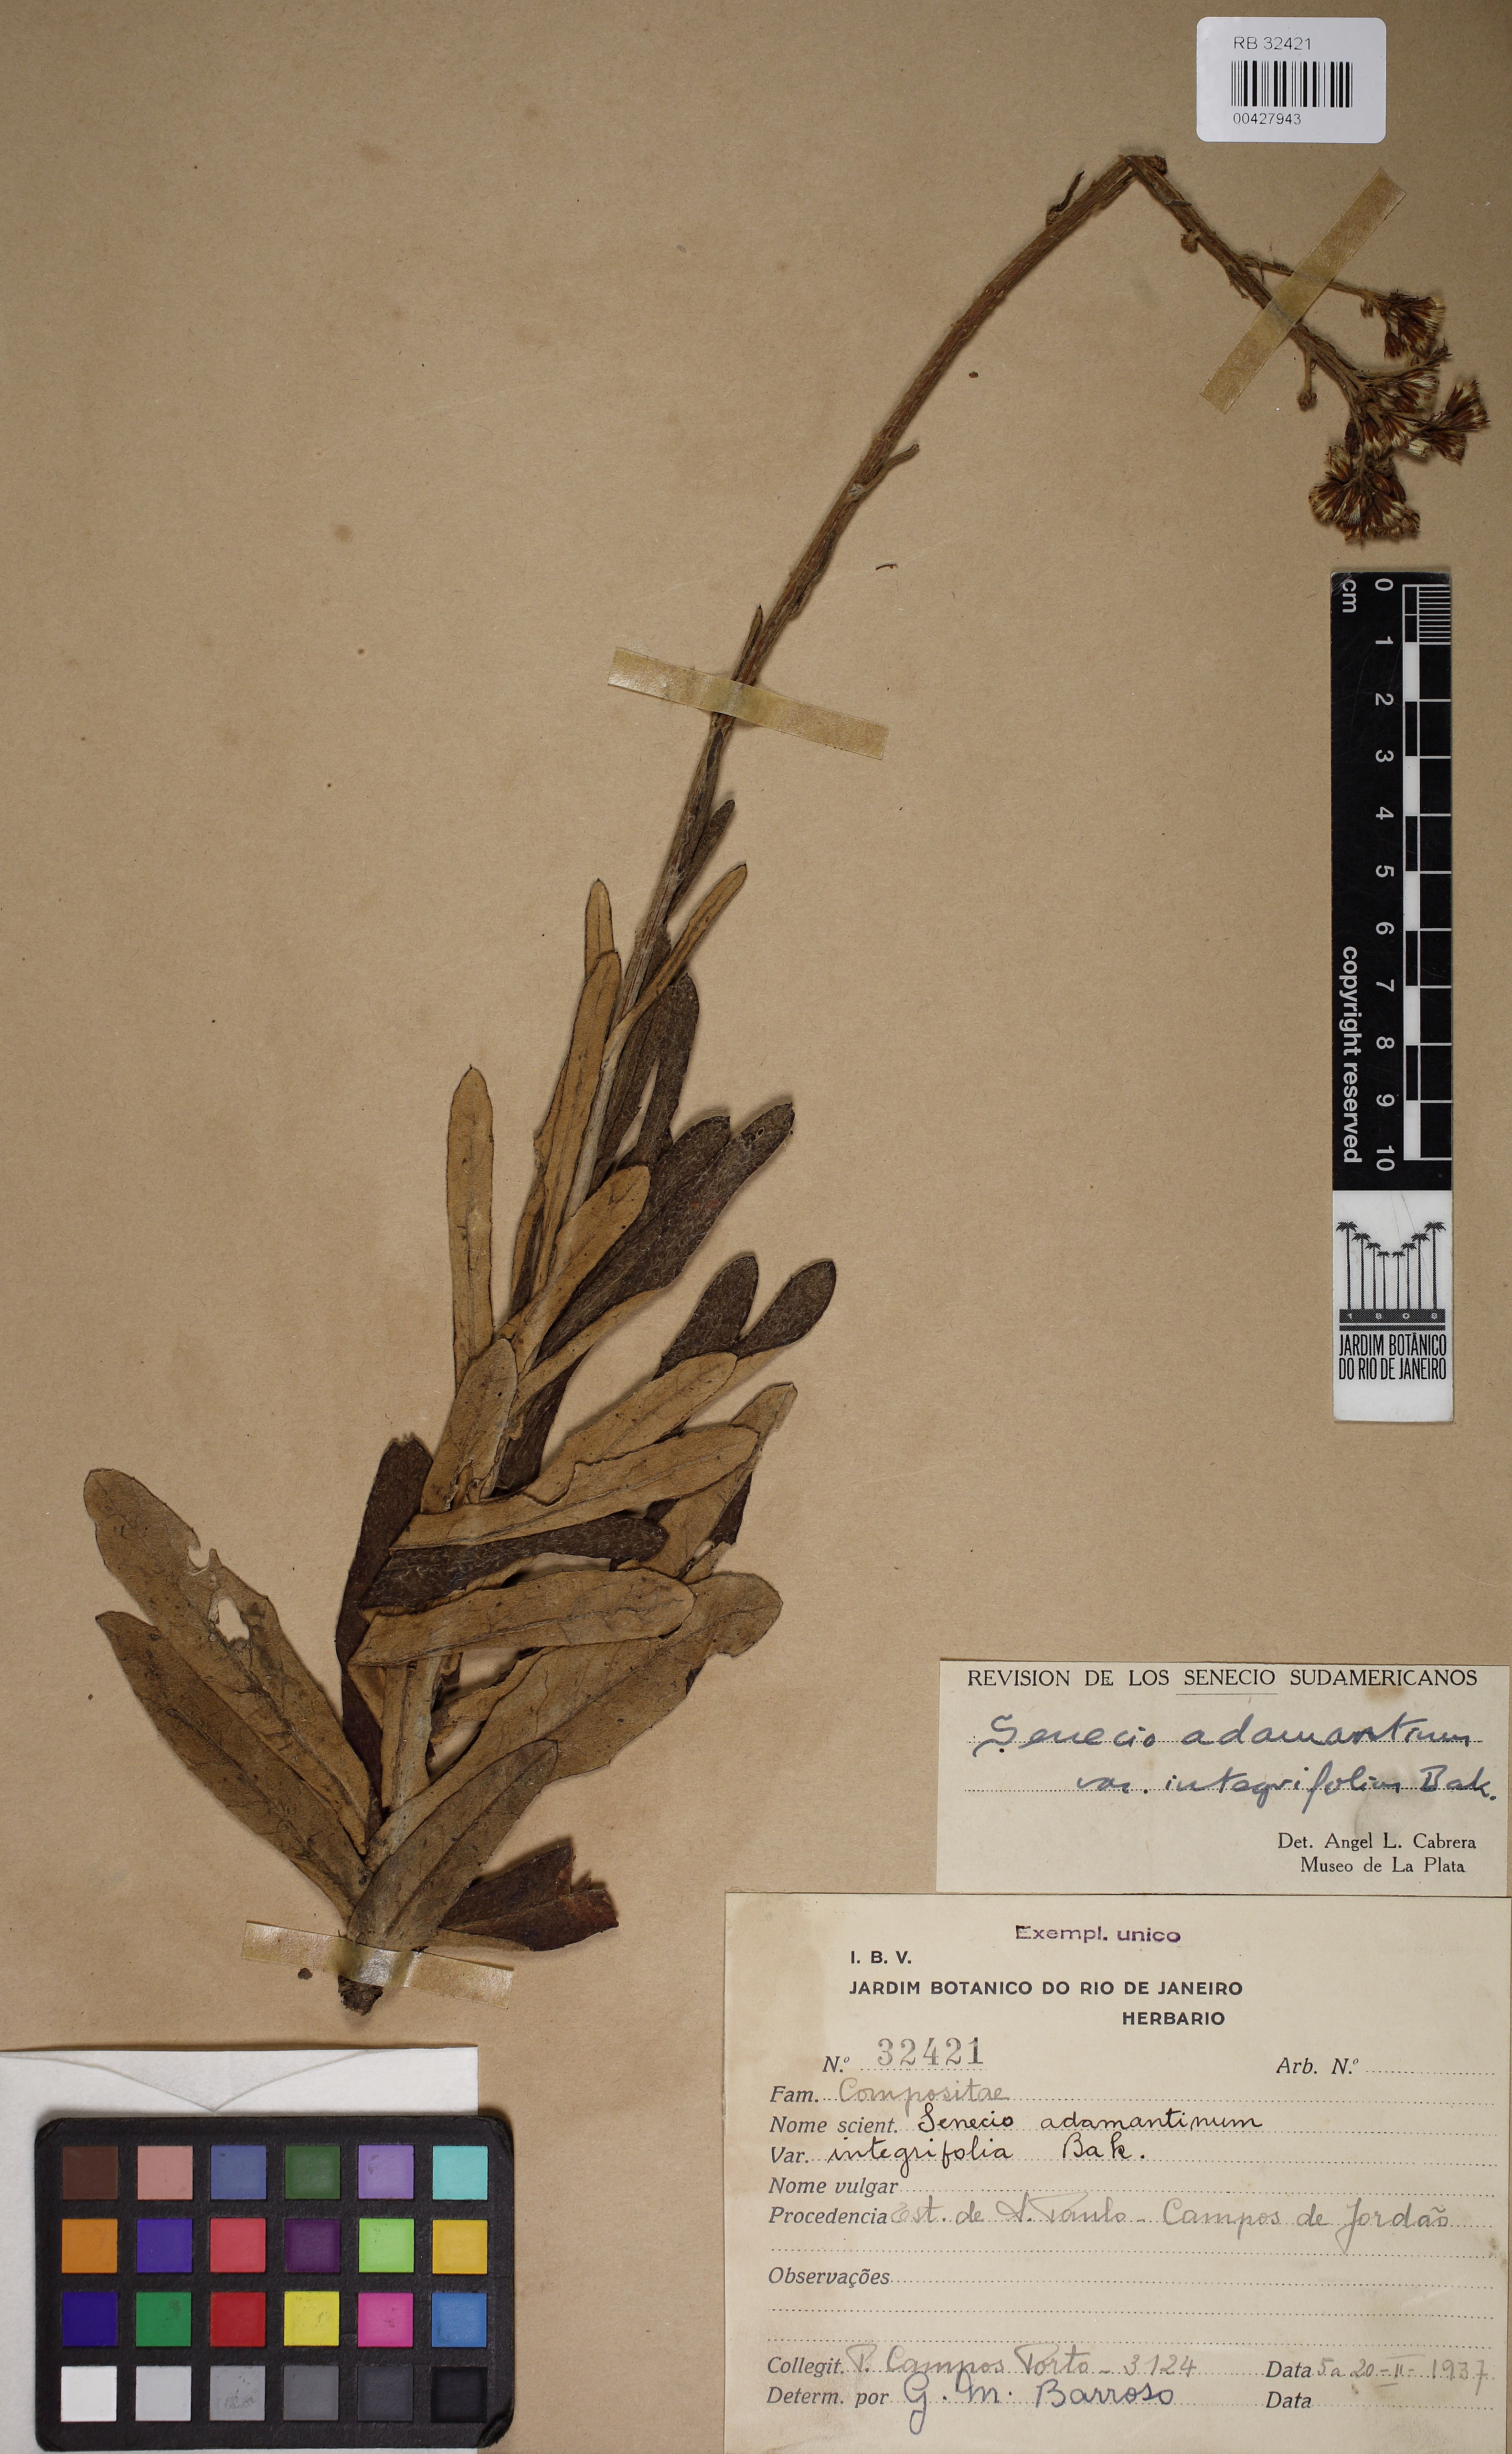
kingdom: Plantae
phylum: Tracheophyta
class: Magnoliopsida
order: Asterales
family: Asteraceae
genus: Senecio
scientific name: Senecio adamantinus
